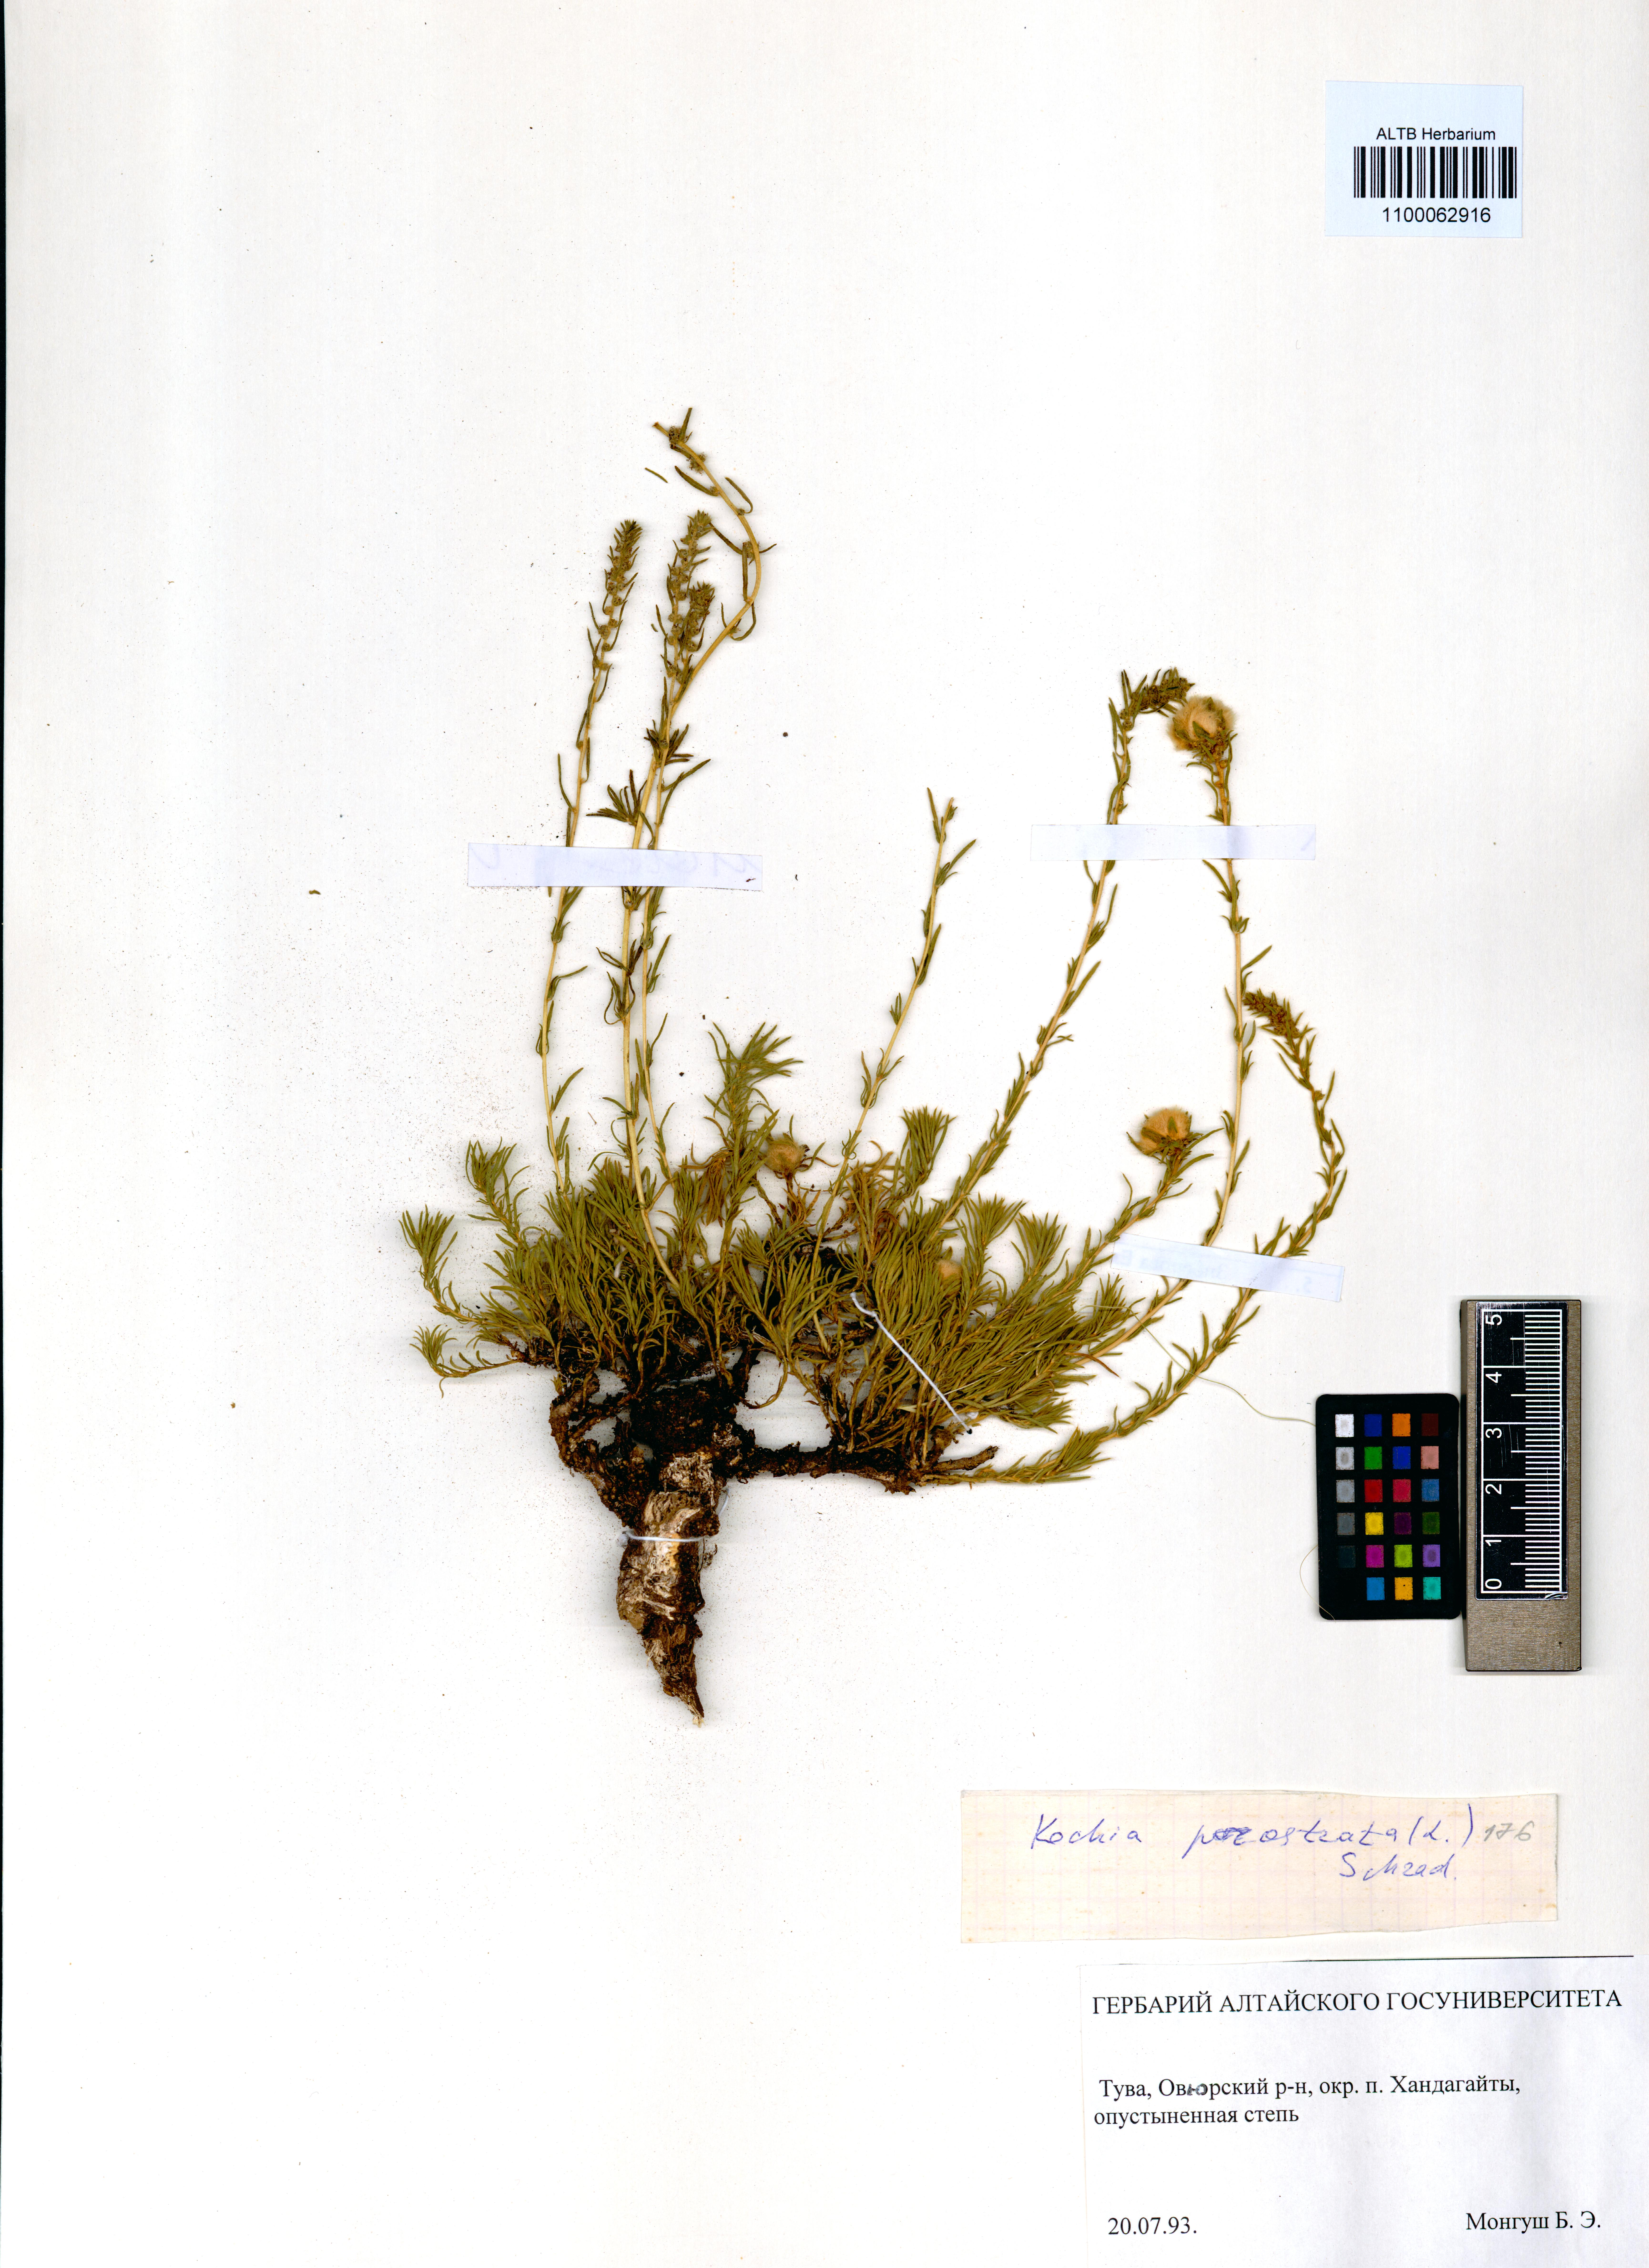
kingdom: Plantae
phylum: Tracheophyta
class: Magnoliopsida
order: Caryophyllales
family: Amaranthaceae
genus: Bassia
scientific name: Bassia prostrata
